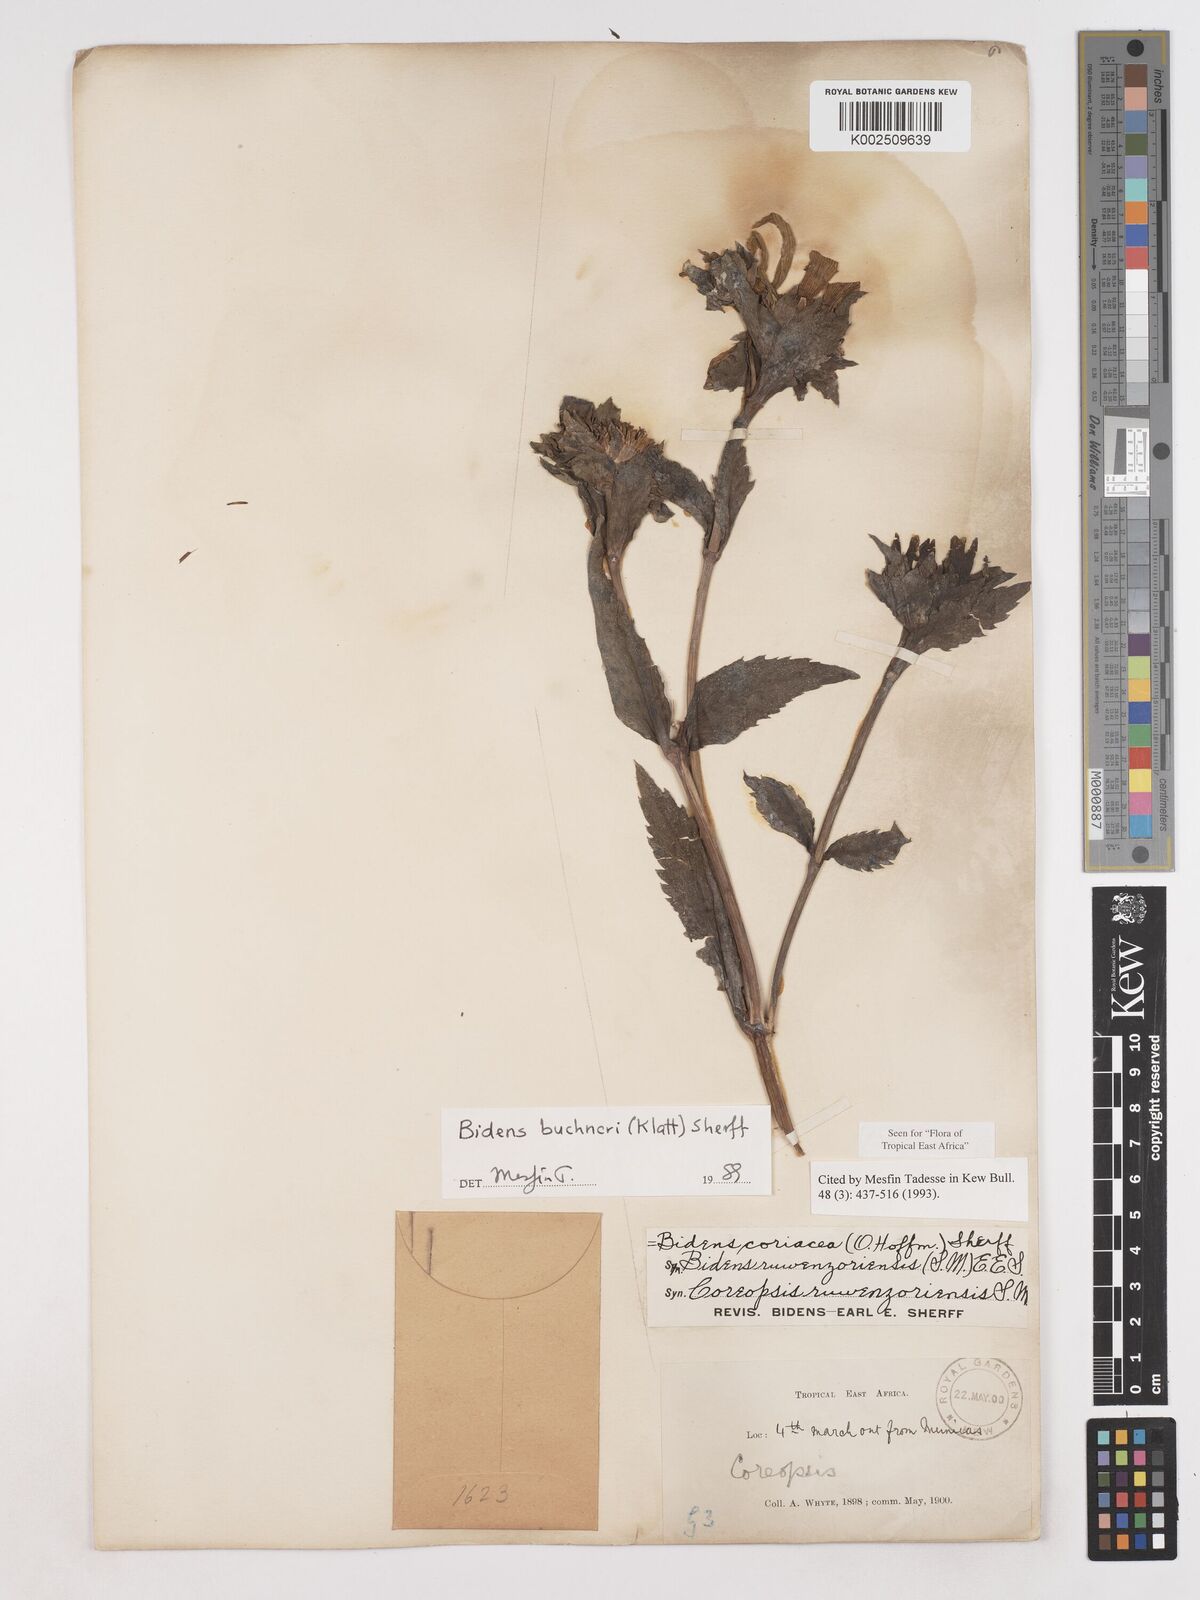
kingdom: Plantae
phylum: Tracheophyta
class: Magnoliopsida
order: Asterales
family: Asteraceae
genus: Bidens
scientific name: Bidens buchneri
